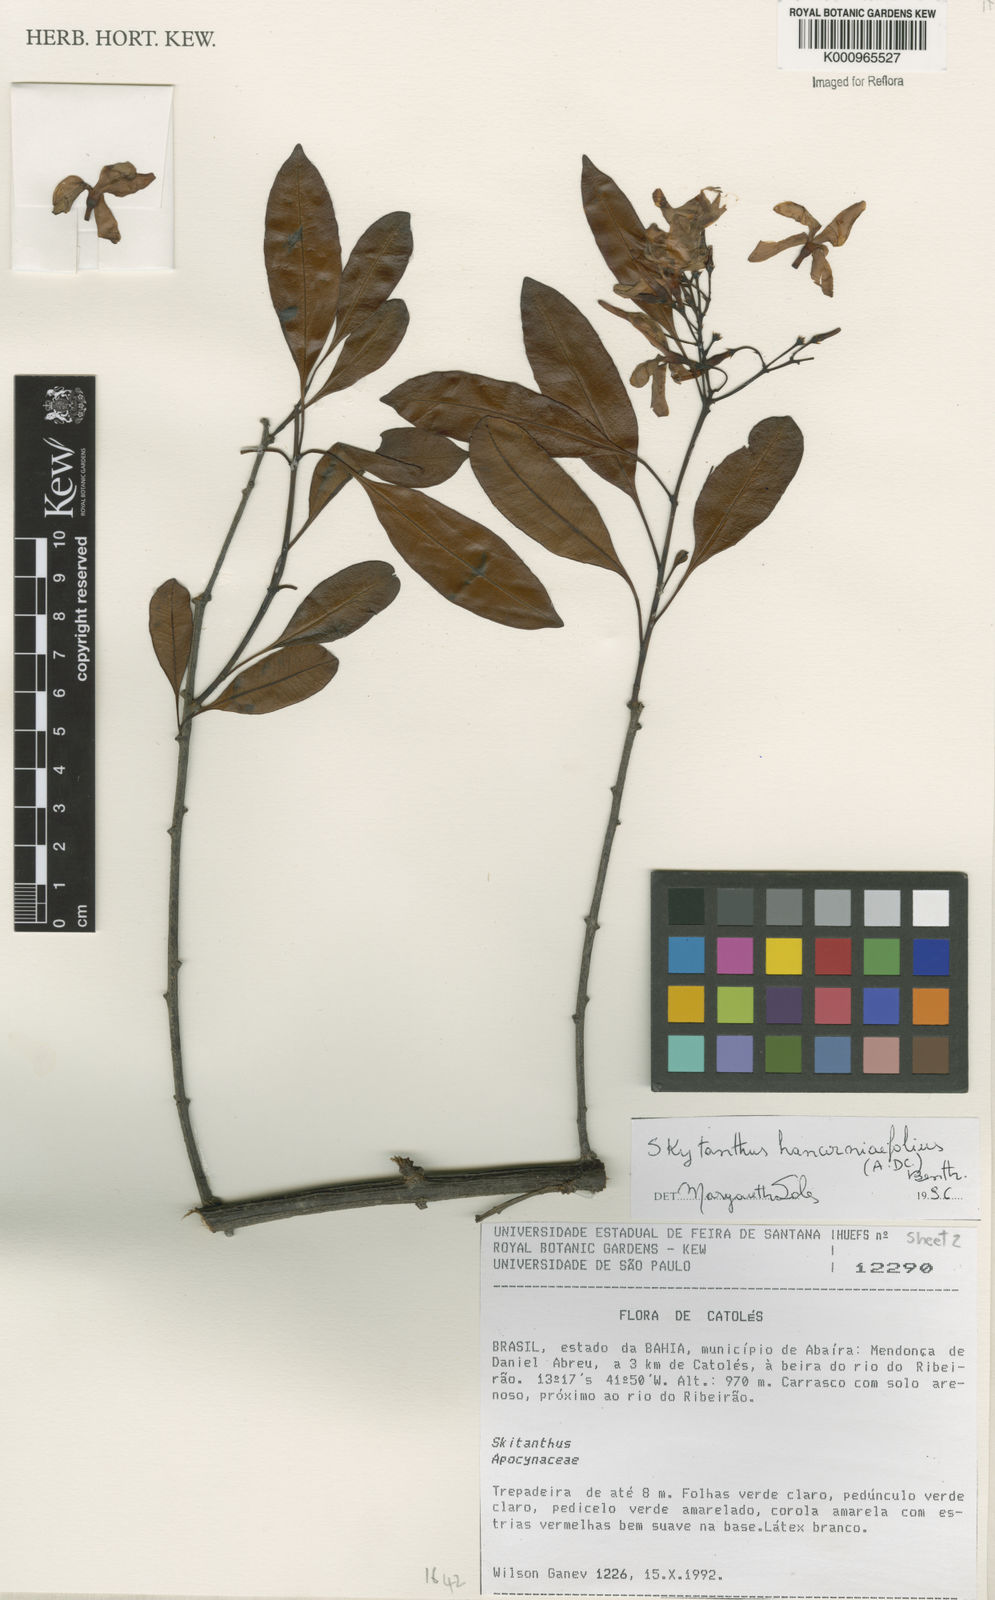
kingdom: Plantae
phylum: Tracheophyta
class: Magnoliopsida
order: Gentianales
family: Apocynaceae
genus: Skytanthus
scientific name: Skytanthus hancorniifolius
